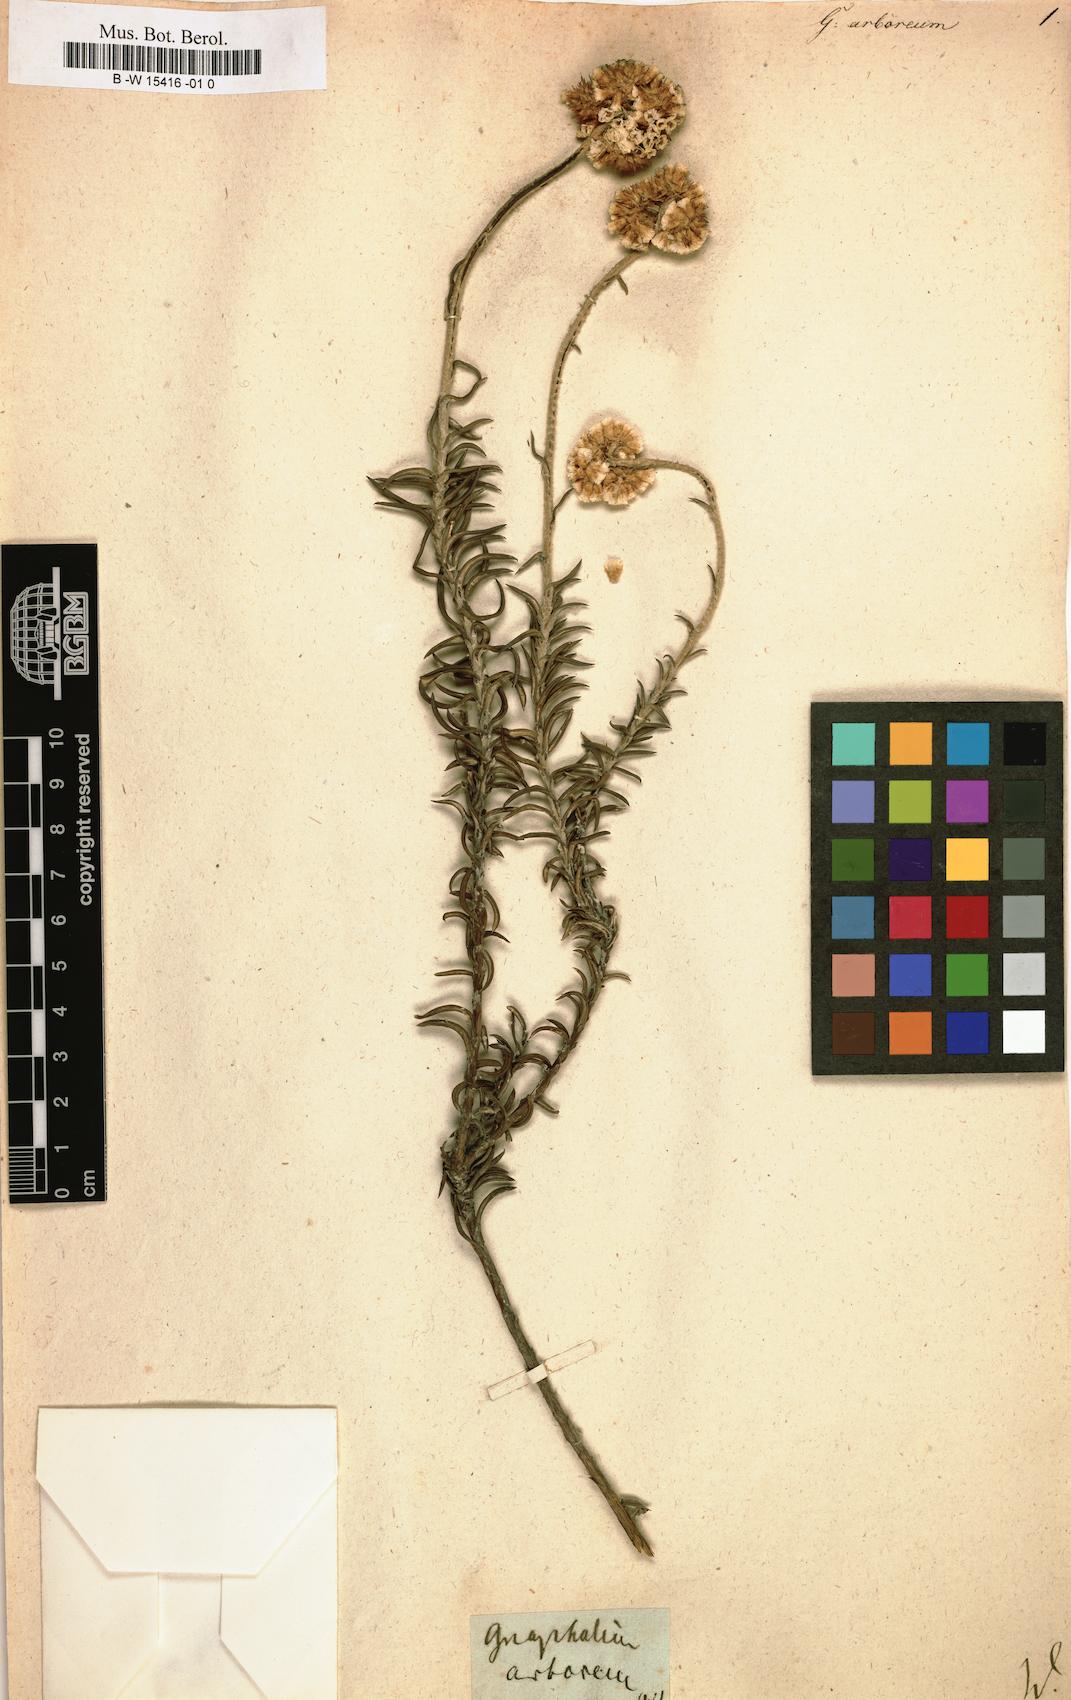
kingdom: Plantae
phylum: Tracheophyta
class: Magnoliopsida
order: Asterales
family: Asteraceae
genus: Anaxeton
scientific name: Anaxeton arborescens
